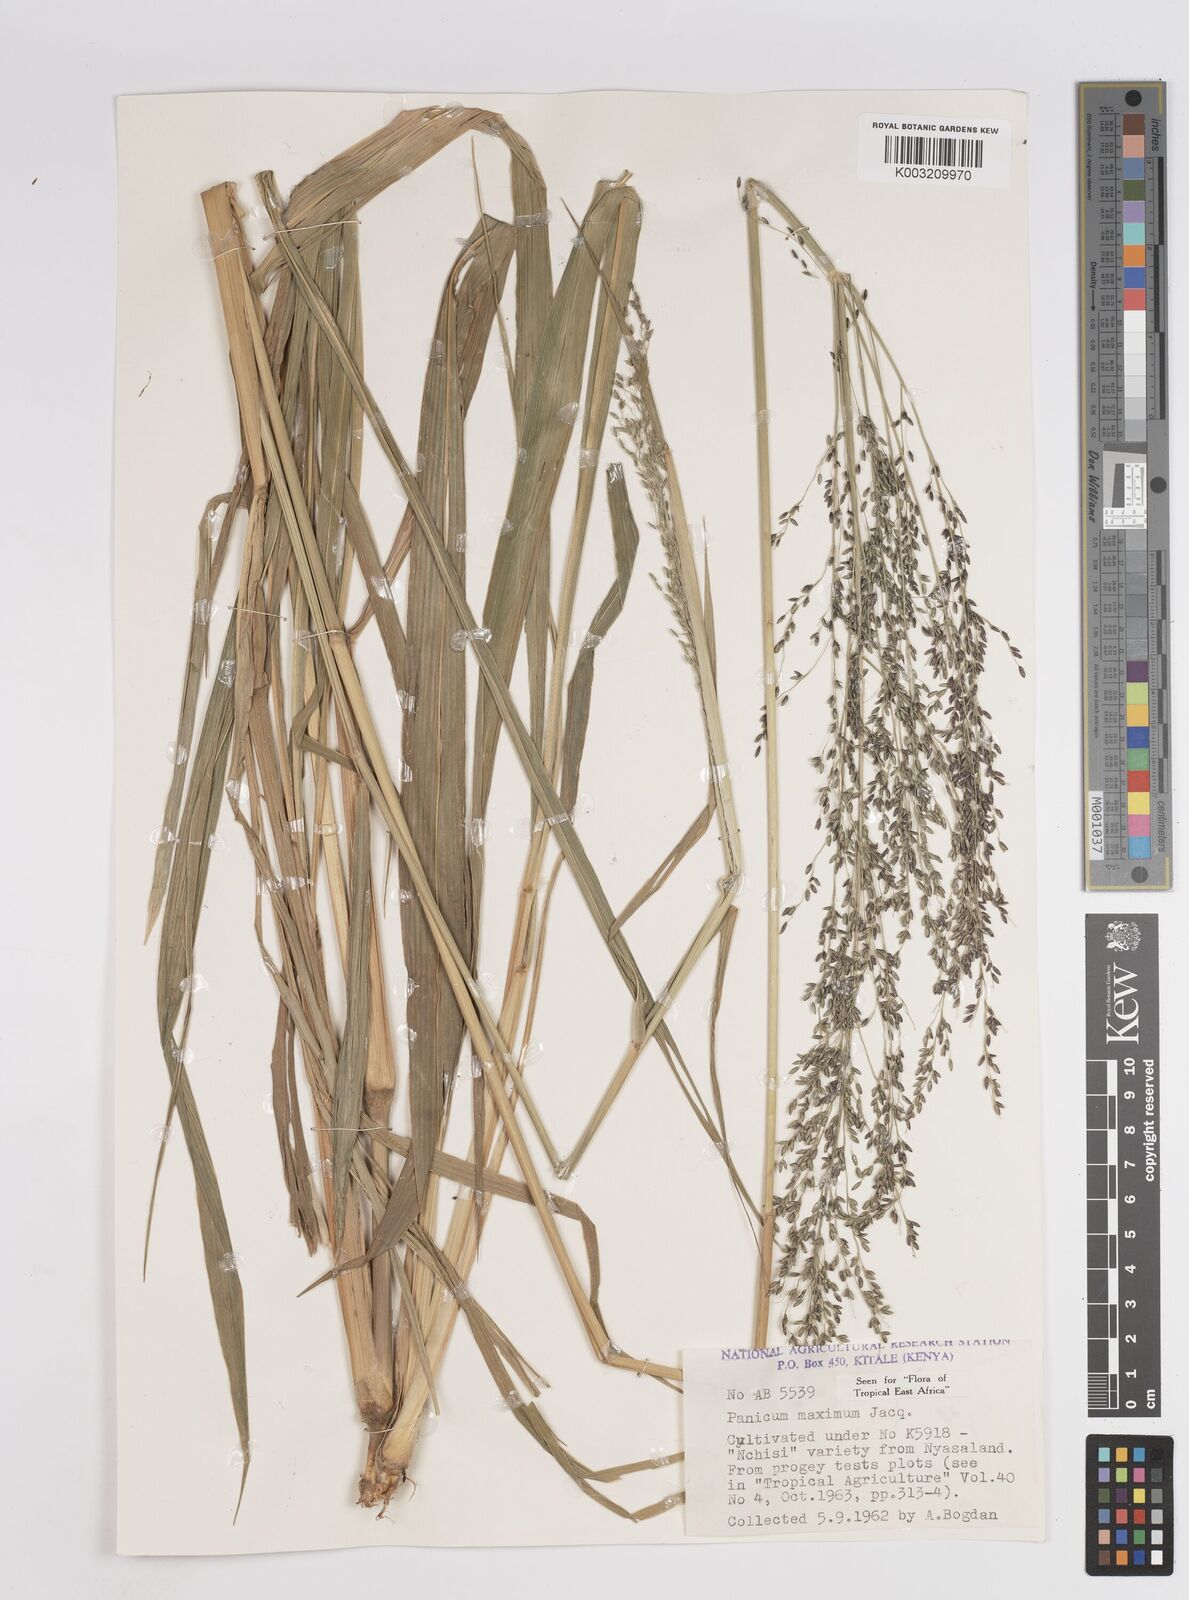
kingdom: Plantae
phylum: Tracheophyta
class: Liliopsida
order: Poales
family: Poaceae
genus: Megathyrsus
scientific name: Megathyrsus maximus
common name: Guineagrass
